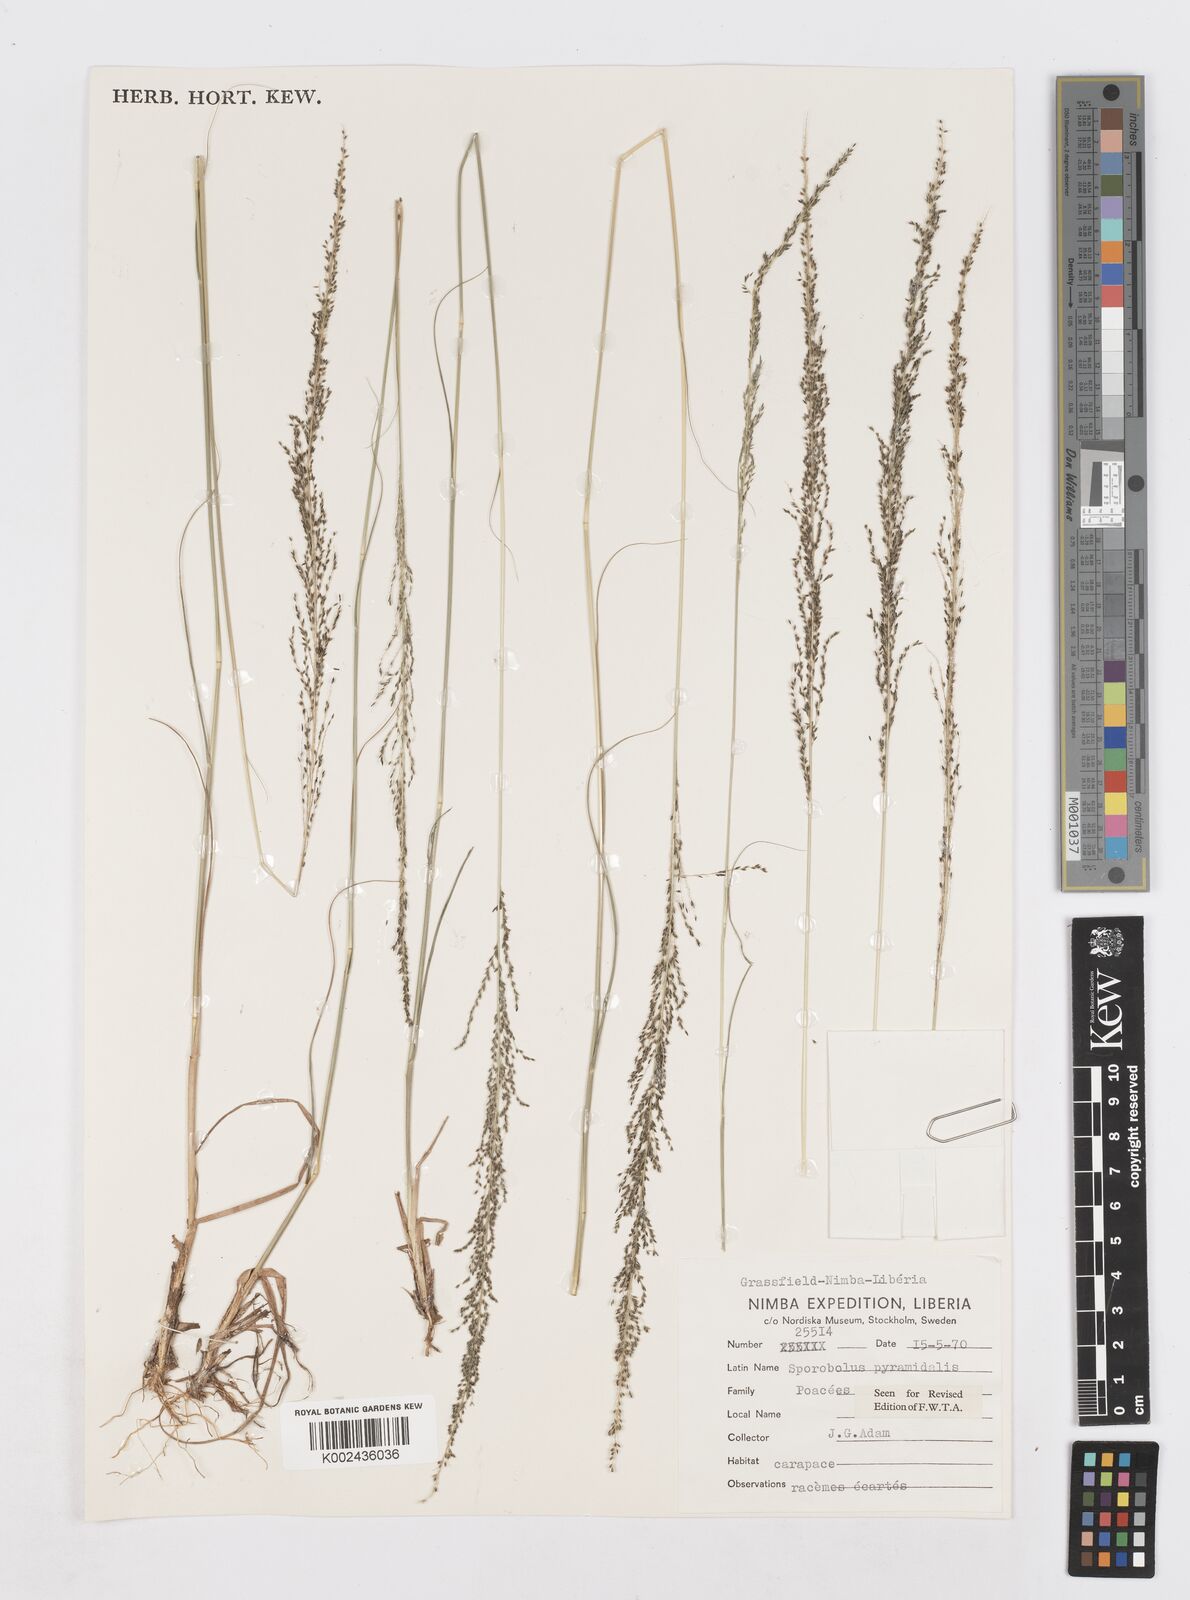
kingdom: Plantae
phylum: Tracheophyta
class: Liliopsida
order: Poales
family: Poaceae
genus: Sporobolus
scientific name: Sporobolus pyramidalis
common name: West indian dropseed
